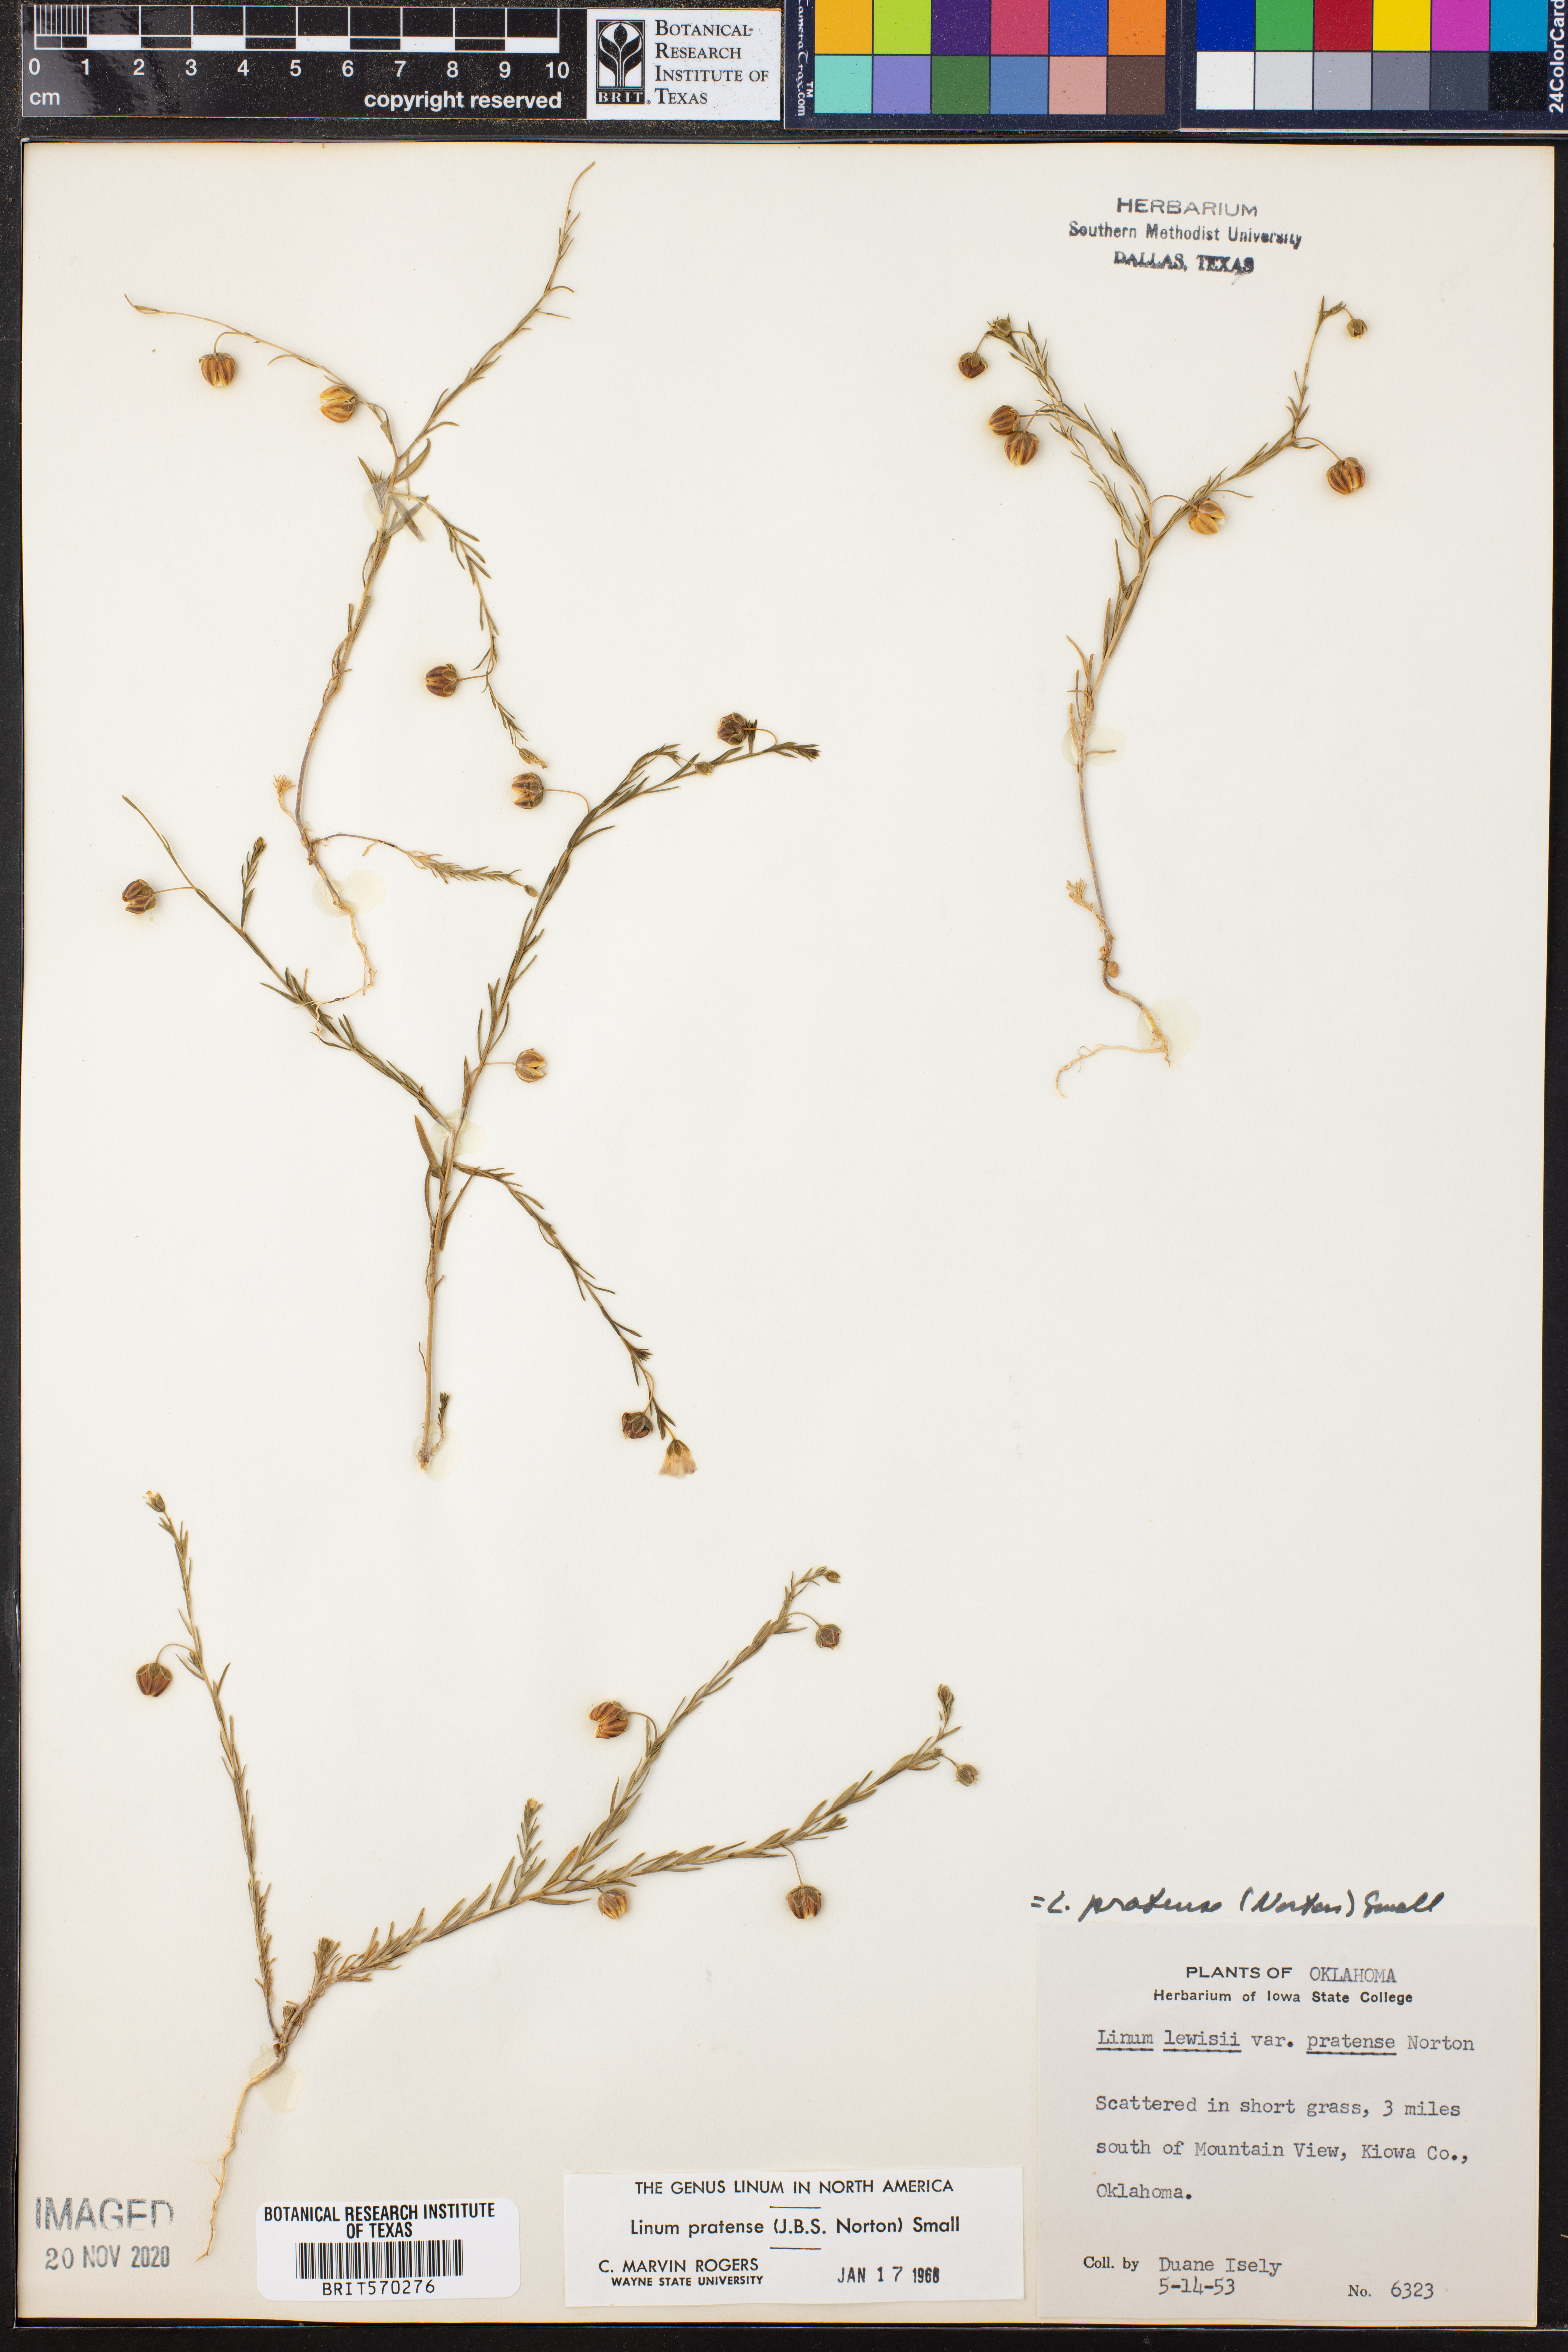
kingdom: Plantae
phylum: Tracheophyta
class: Magnoliopsida
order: Malpighiales
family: Linaceae
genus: Linum
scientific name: Linum pratense
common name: Norton's flax
